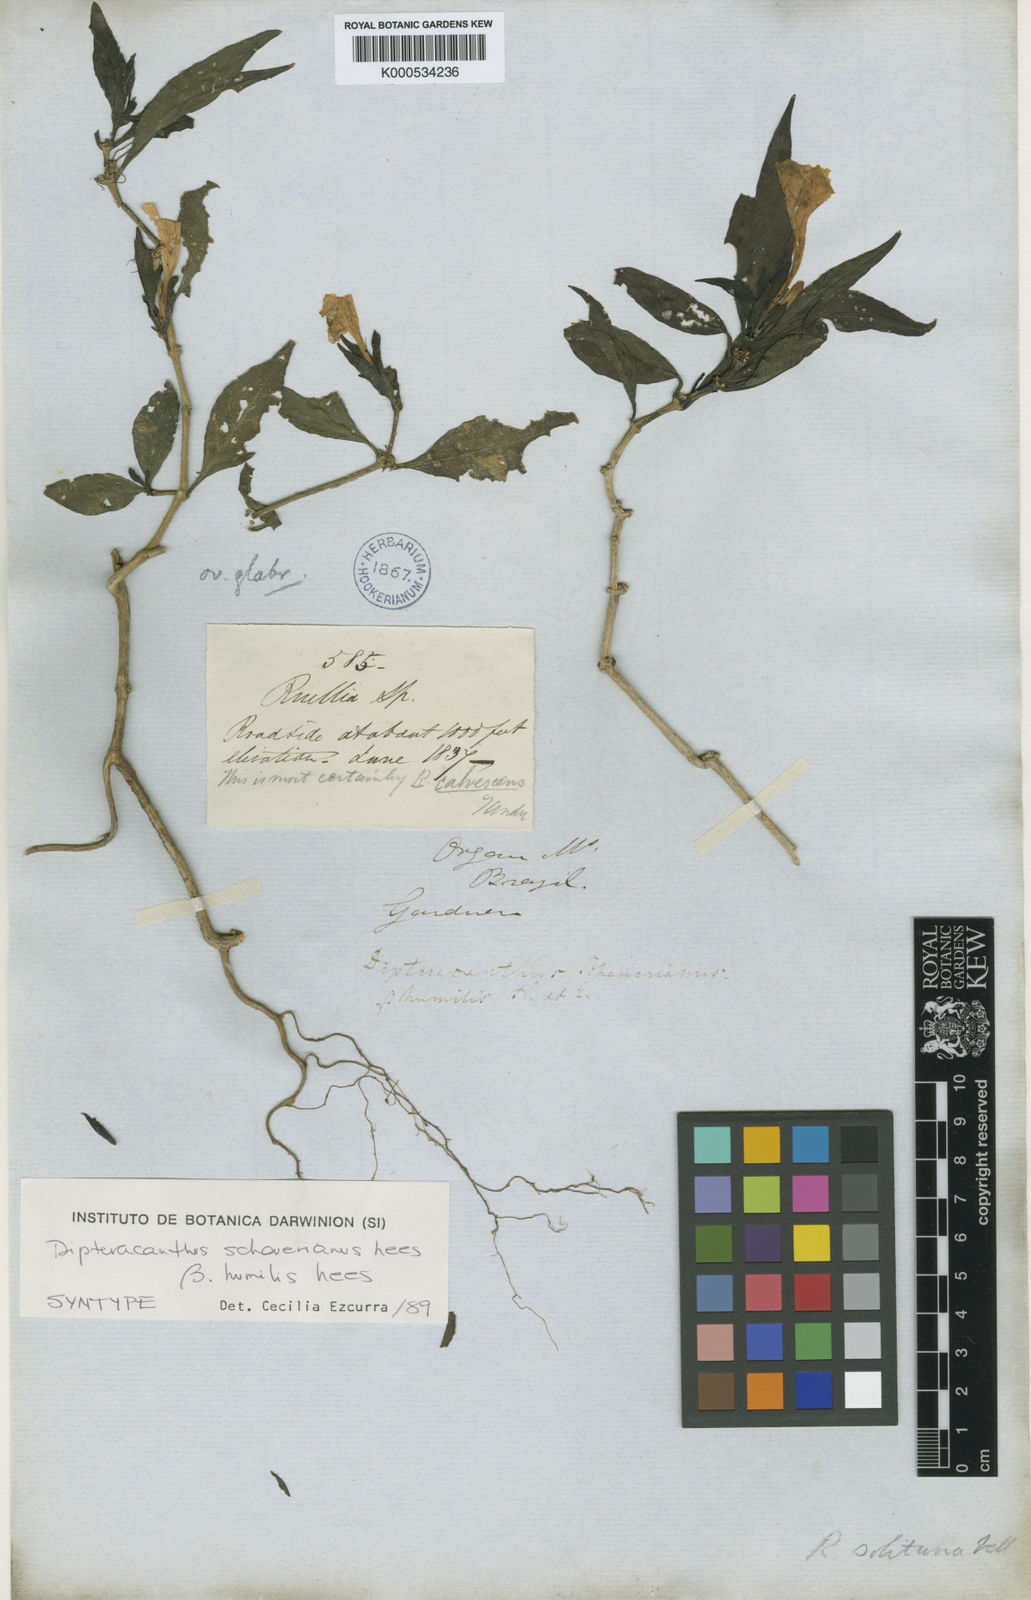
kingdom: Plantae
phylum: Tracheophyta
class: Magnoliopsida
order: Lamiales
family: Acanthaceae
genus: Ruellia
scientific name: Ruellia
